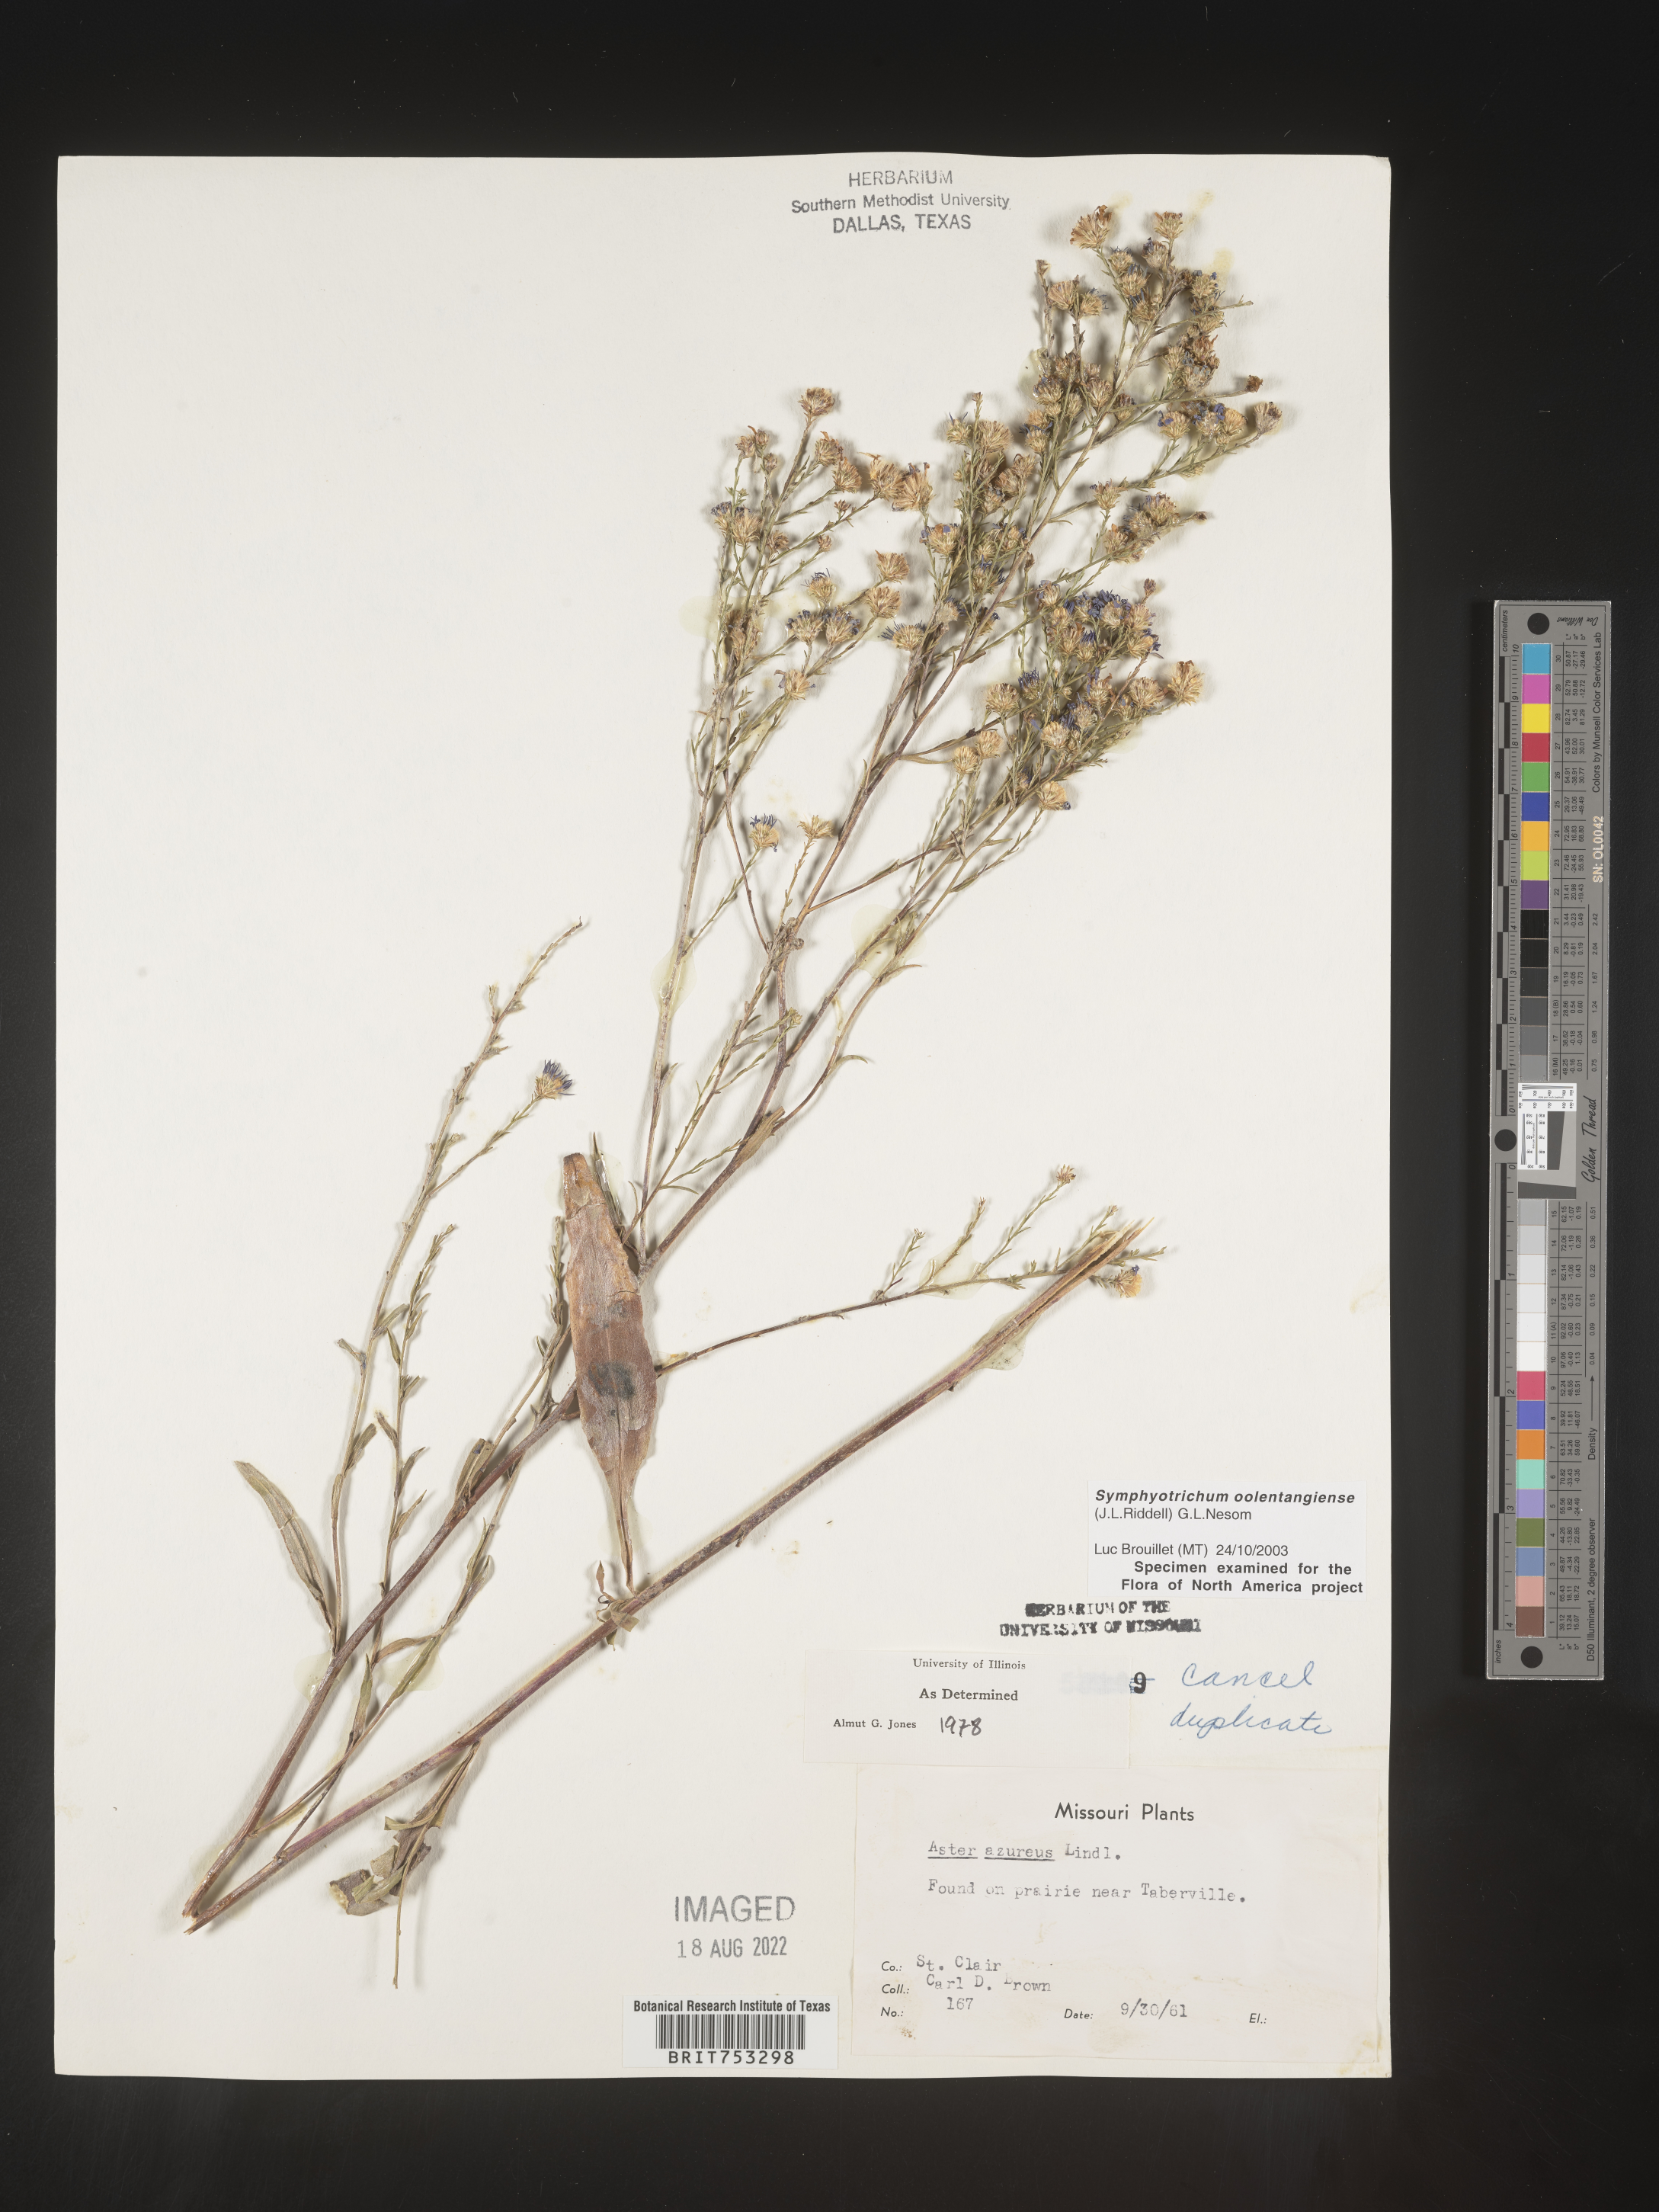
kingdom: Plantae
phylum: Tracheophyta
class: Magnoliopsida
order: Asterales
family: Asteraceae
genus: Symphyotrichum
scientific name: Symphyotrichum oolentangiense
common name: Azure aster
